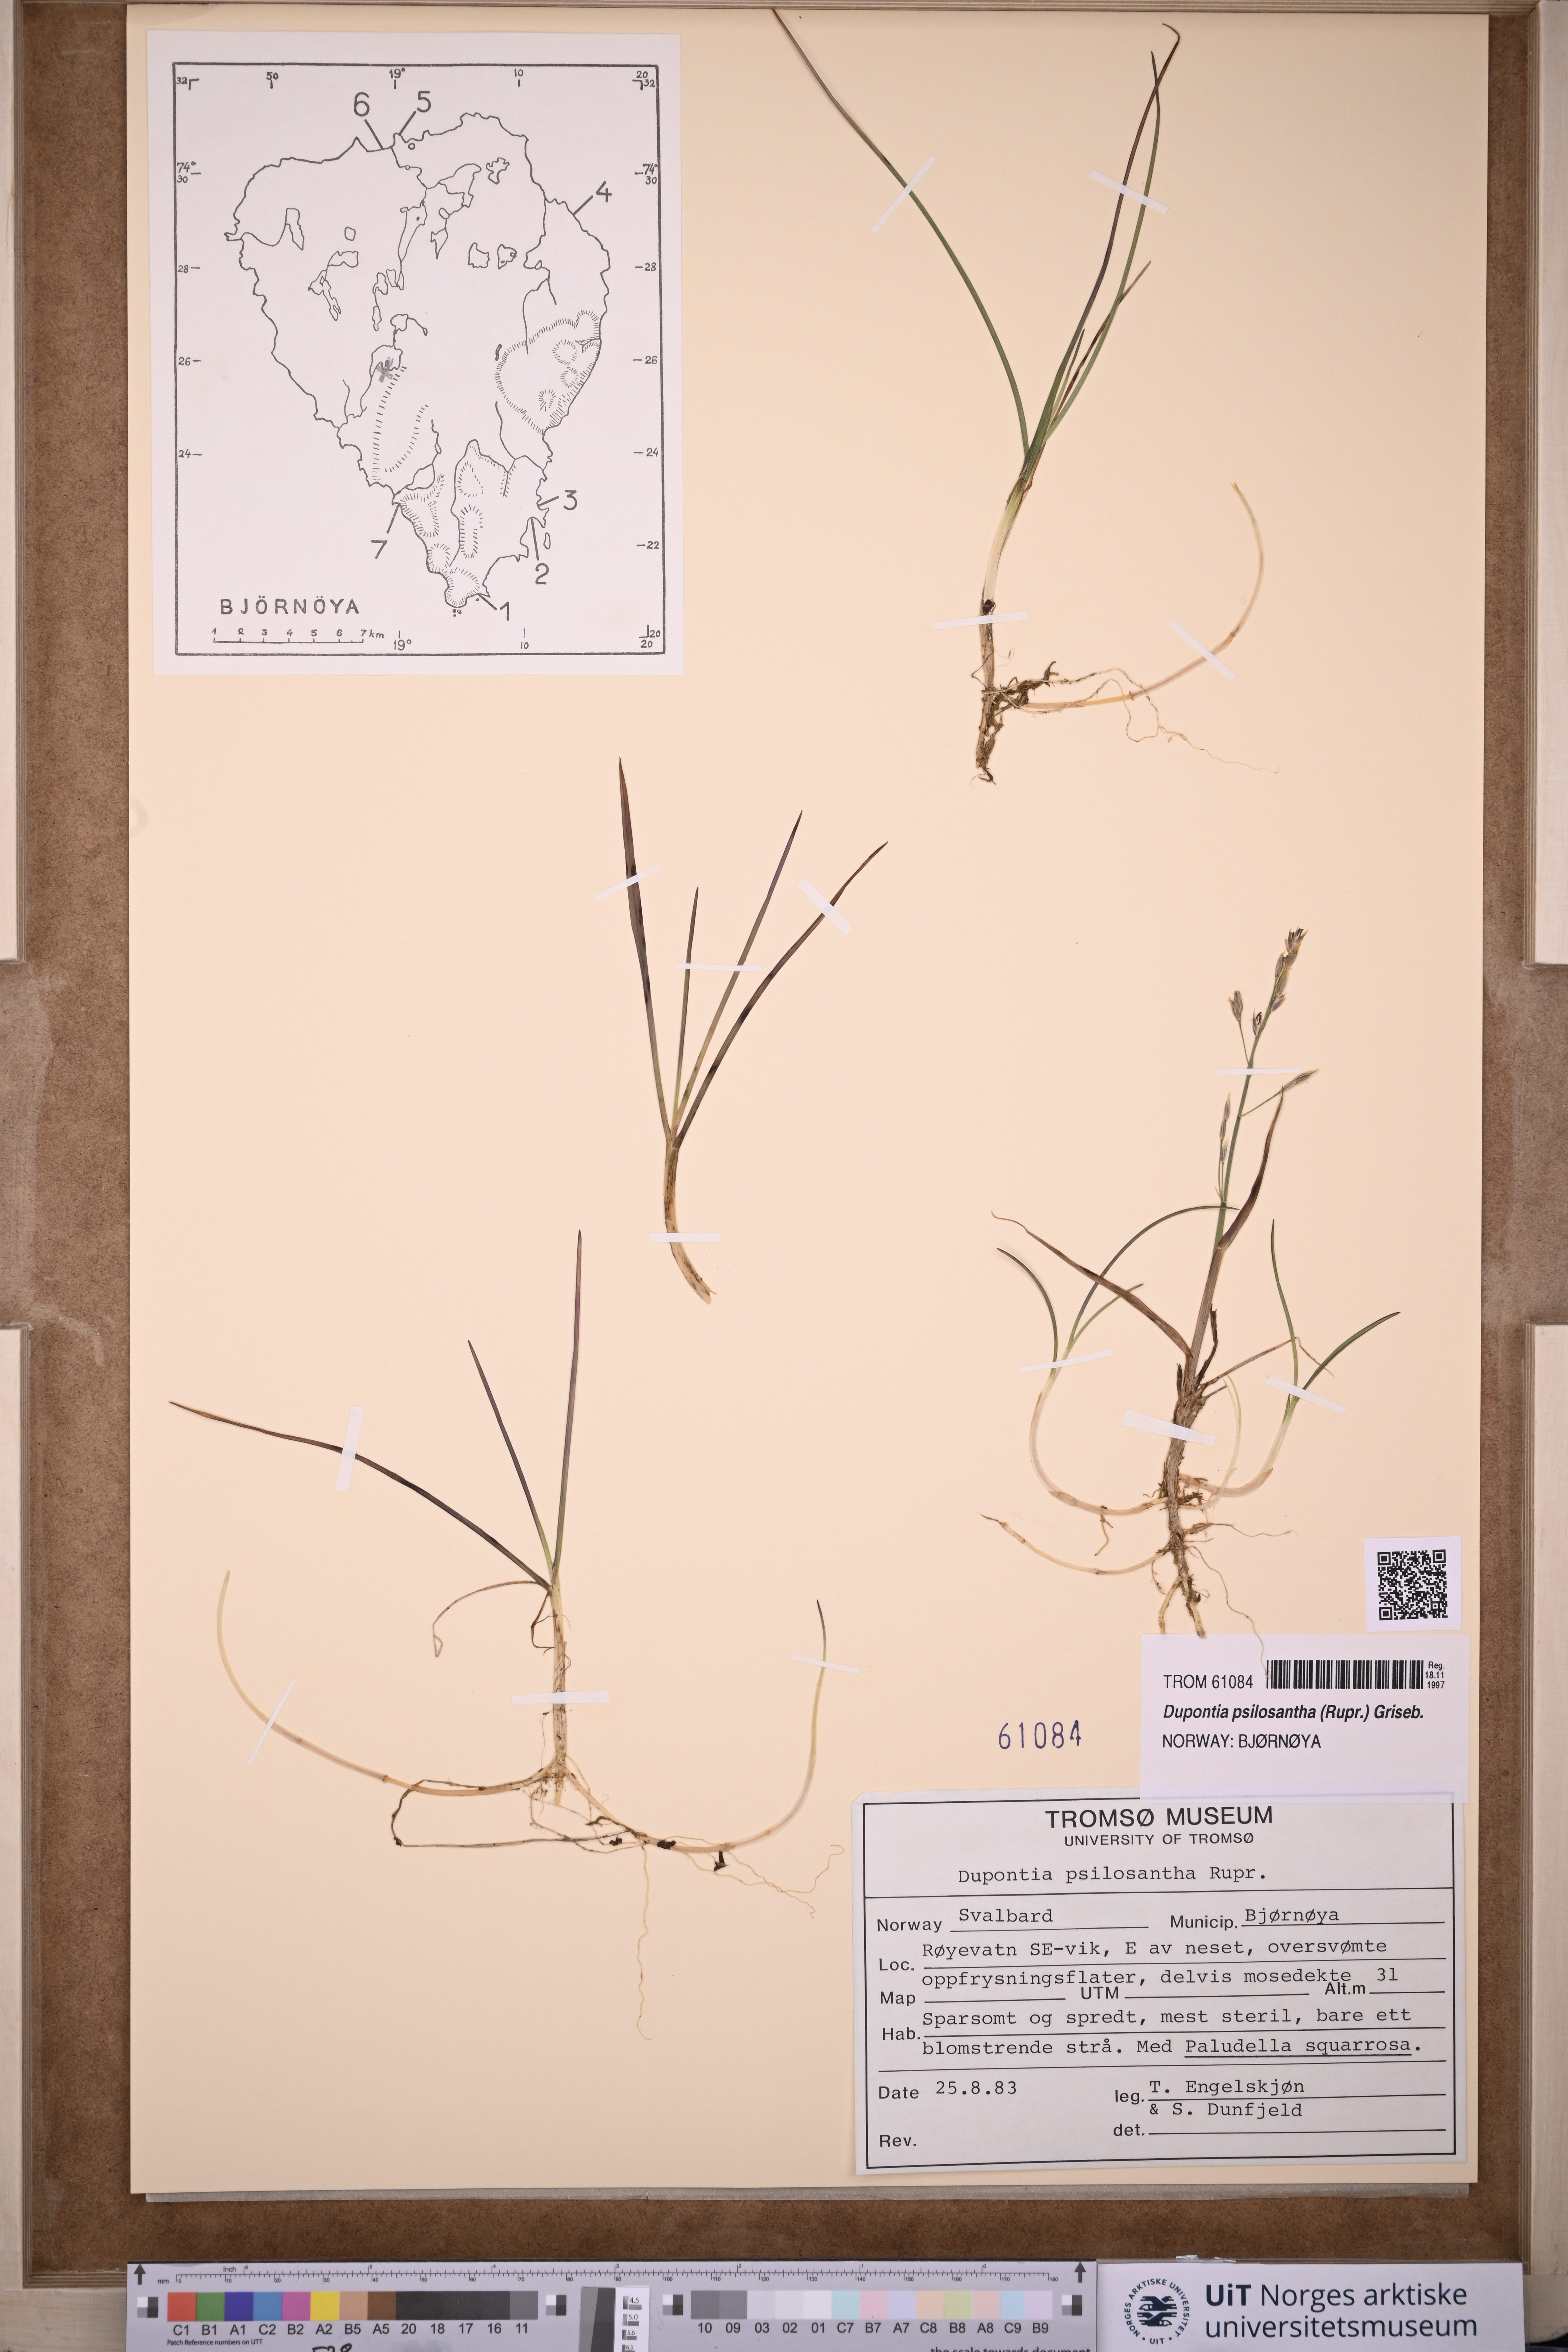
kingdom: Plantae
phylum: Tracheophyta
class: Liliopsida
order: Poales
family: Poaceae
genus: Dupontia
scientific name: Dupontia fisheri
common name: Tundra grass
